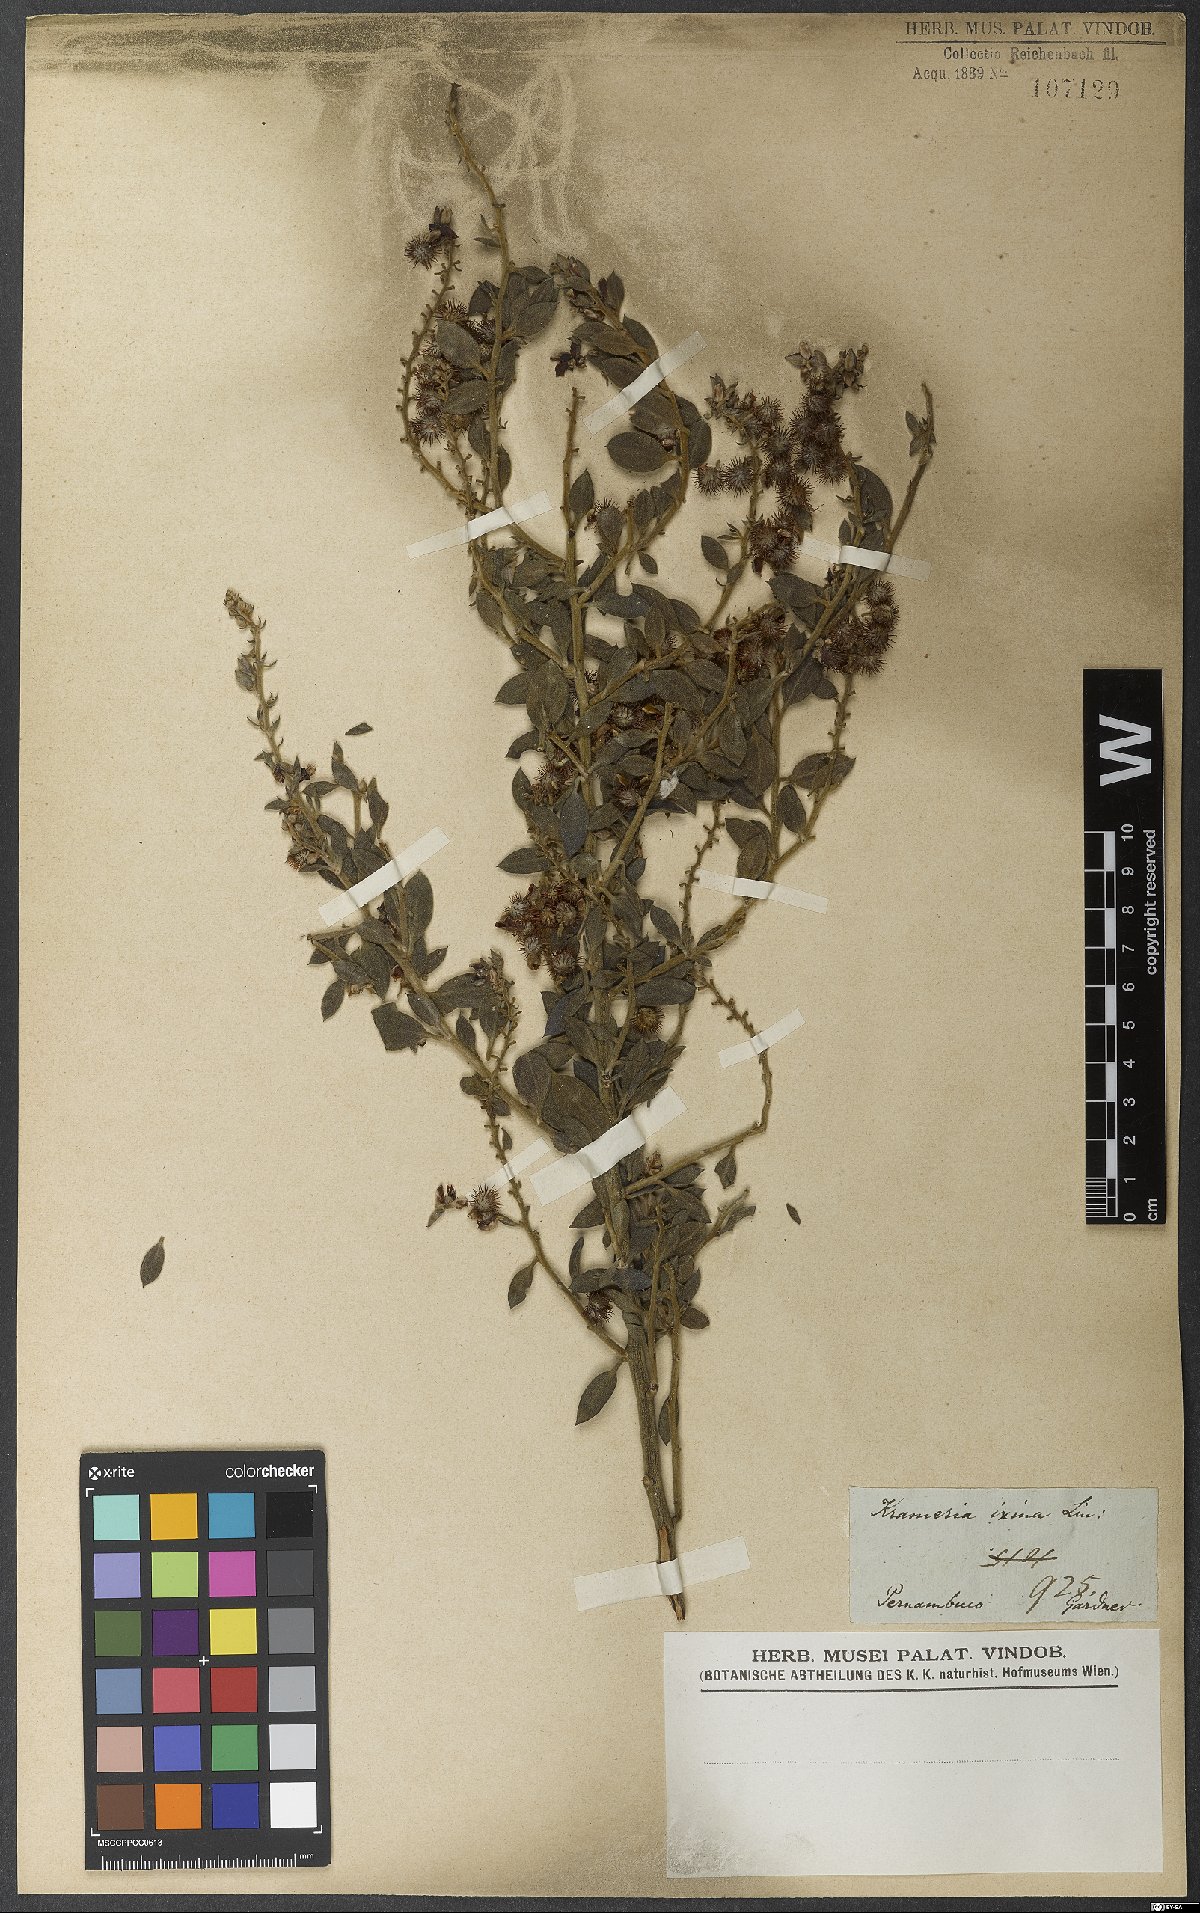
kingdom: Plantae
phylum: Tracheophyta
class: Magnoliopsida
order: Zygophyllales
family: Krameriaceae
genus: Krameria
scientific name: Krameria ixine
